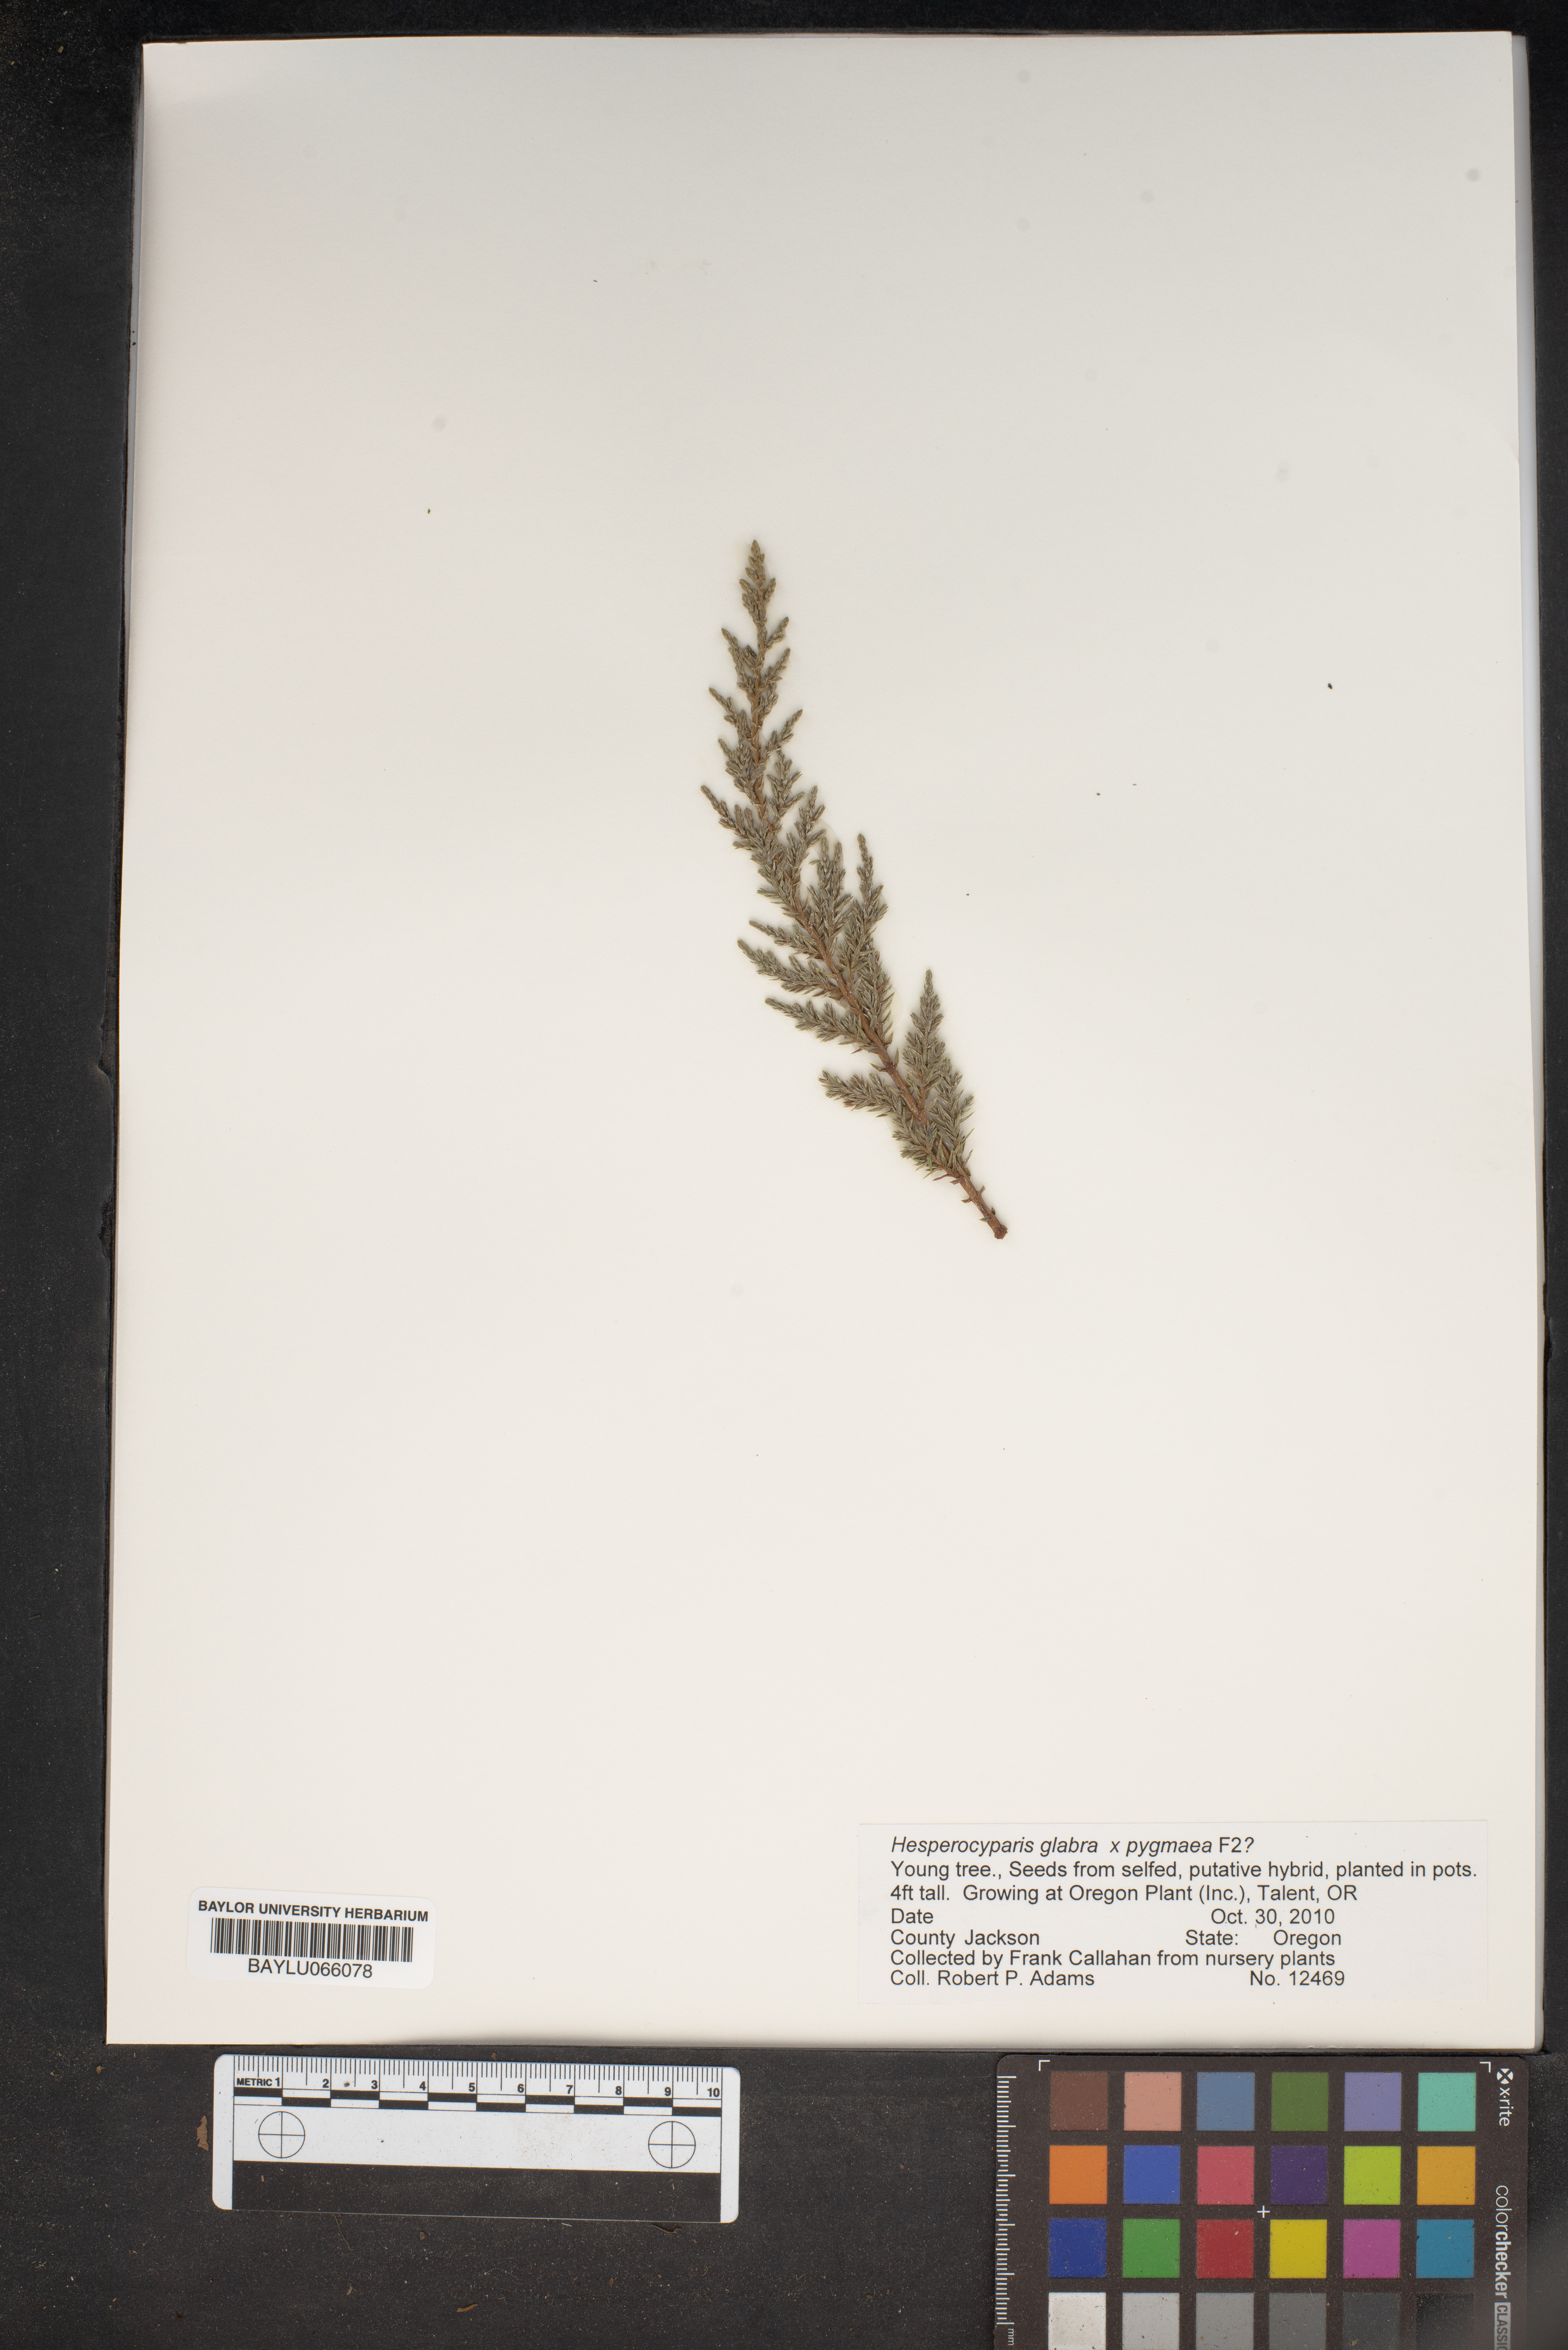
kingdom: Plantae
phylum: Tracheophyta
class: Pinopsida
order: Pinales
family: Cupressaceae
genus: Cupressus
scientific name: Cupressus arizonica
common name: Arizona cypress
